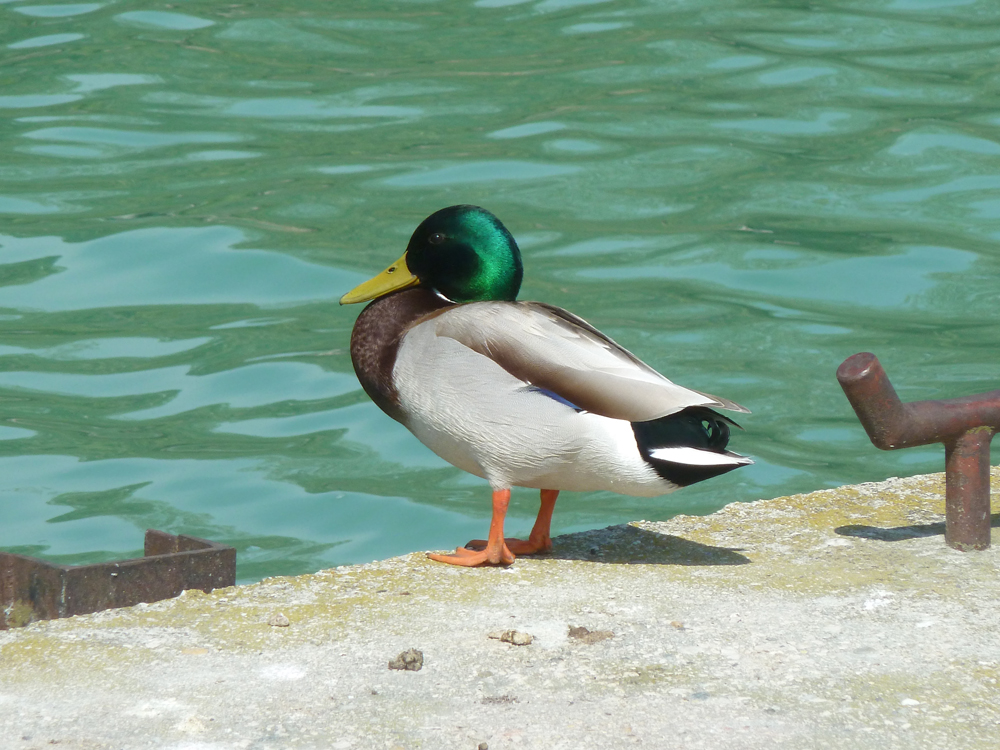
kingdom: Animalia
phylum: Chordata
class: Aves
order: Anseriformes
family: Anatidae
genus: Anas
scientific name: Anas platyrhynchos
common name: Mallard
